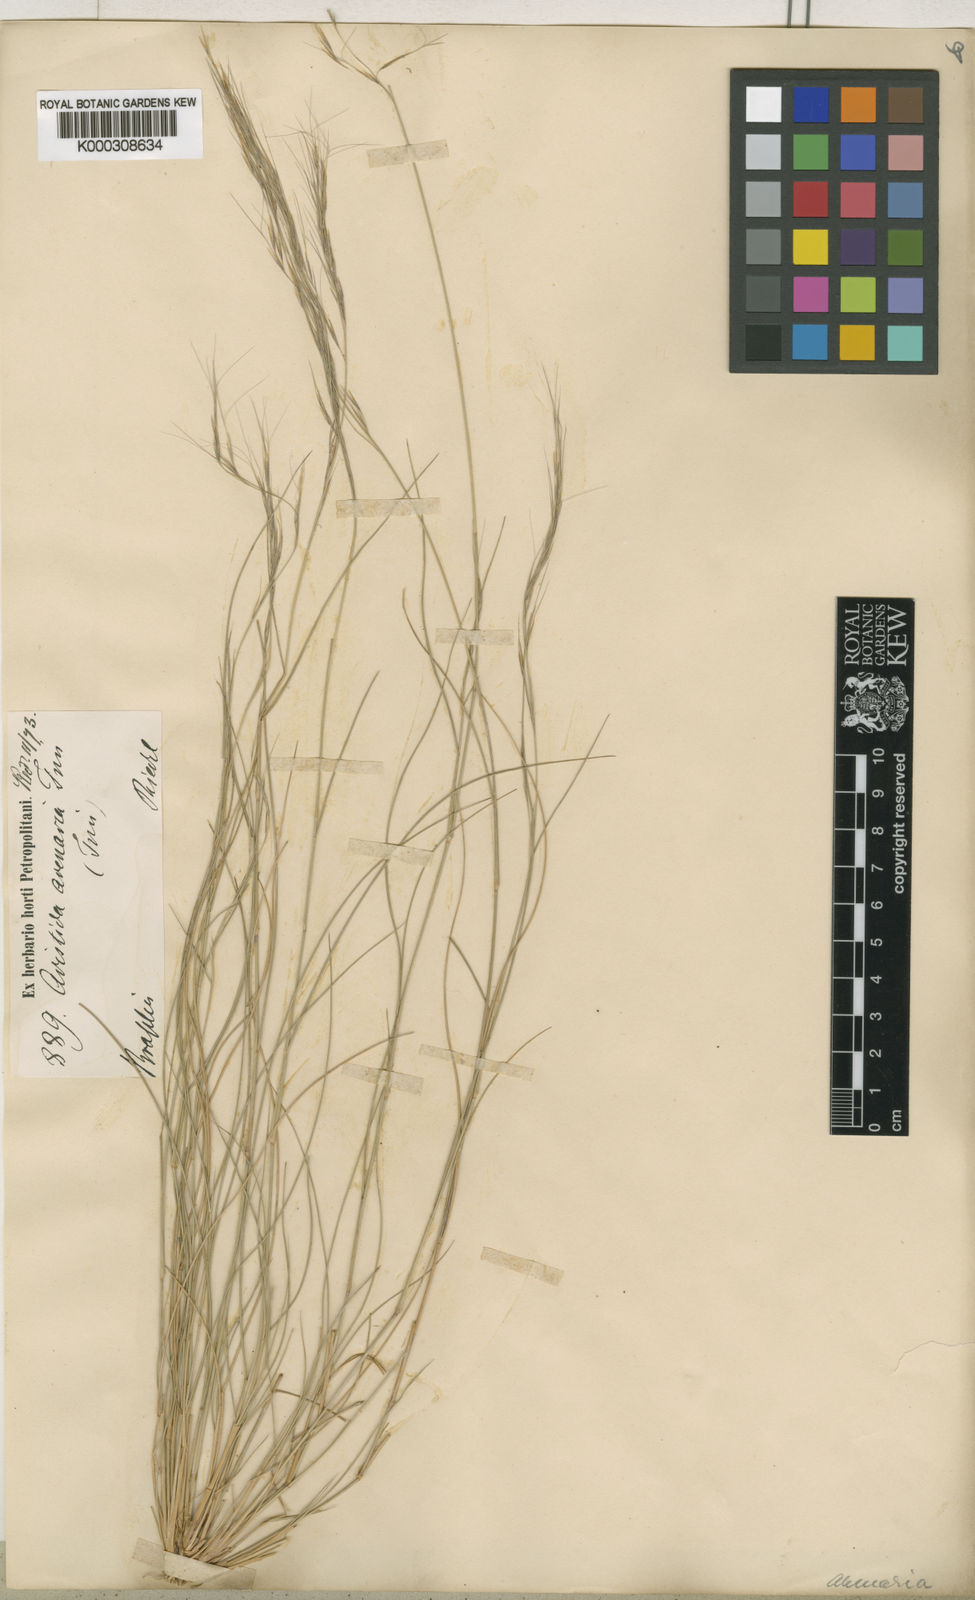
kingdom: Plantae
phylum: Tracheophyta
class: Liliopsida
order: Poales
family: Poaceae
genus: Aristida
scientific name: Aristida
